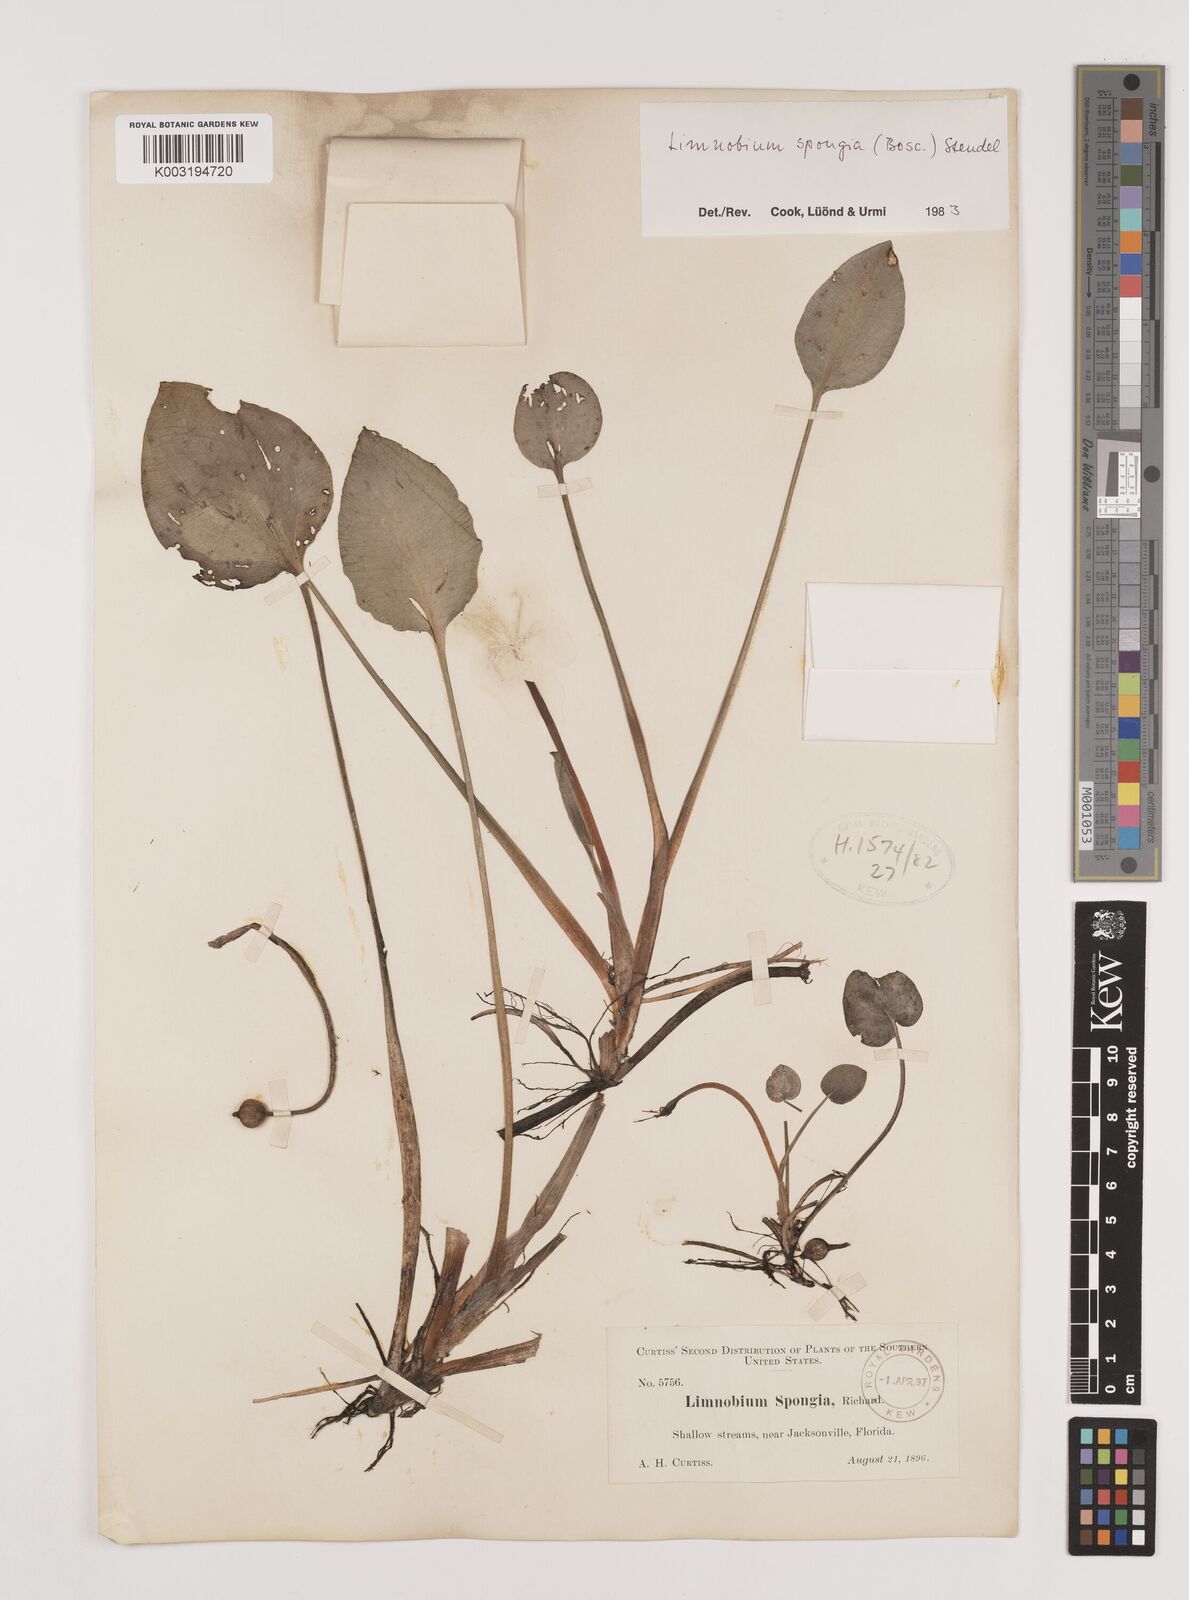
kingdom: Plantae
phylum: Tracheophyta
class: Liliopsida
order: Alismatales
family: Hydrocharitaceae
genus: Hydrocharis
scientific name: Hydrocharis spongia
